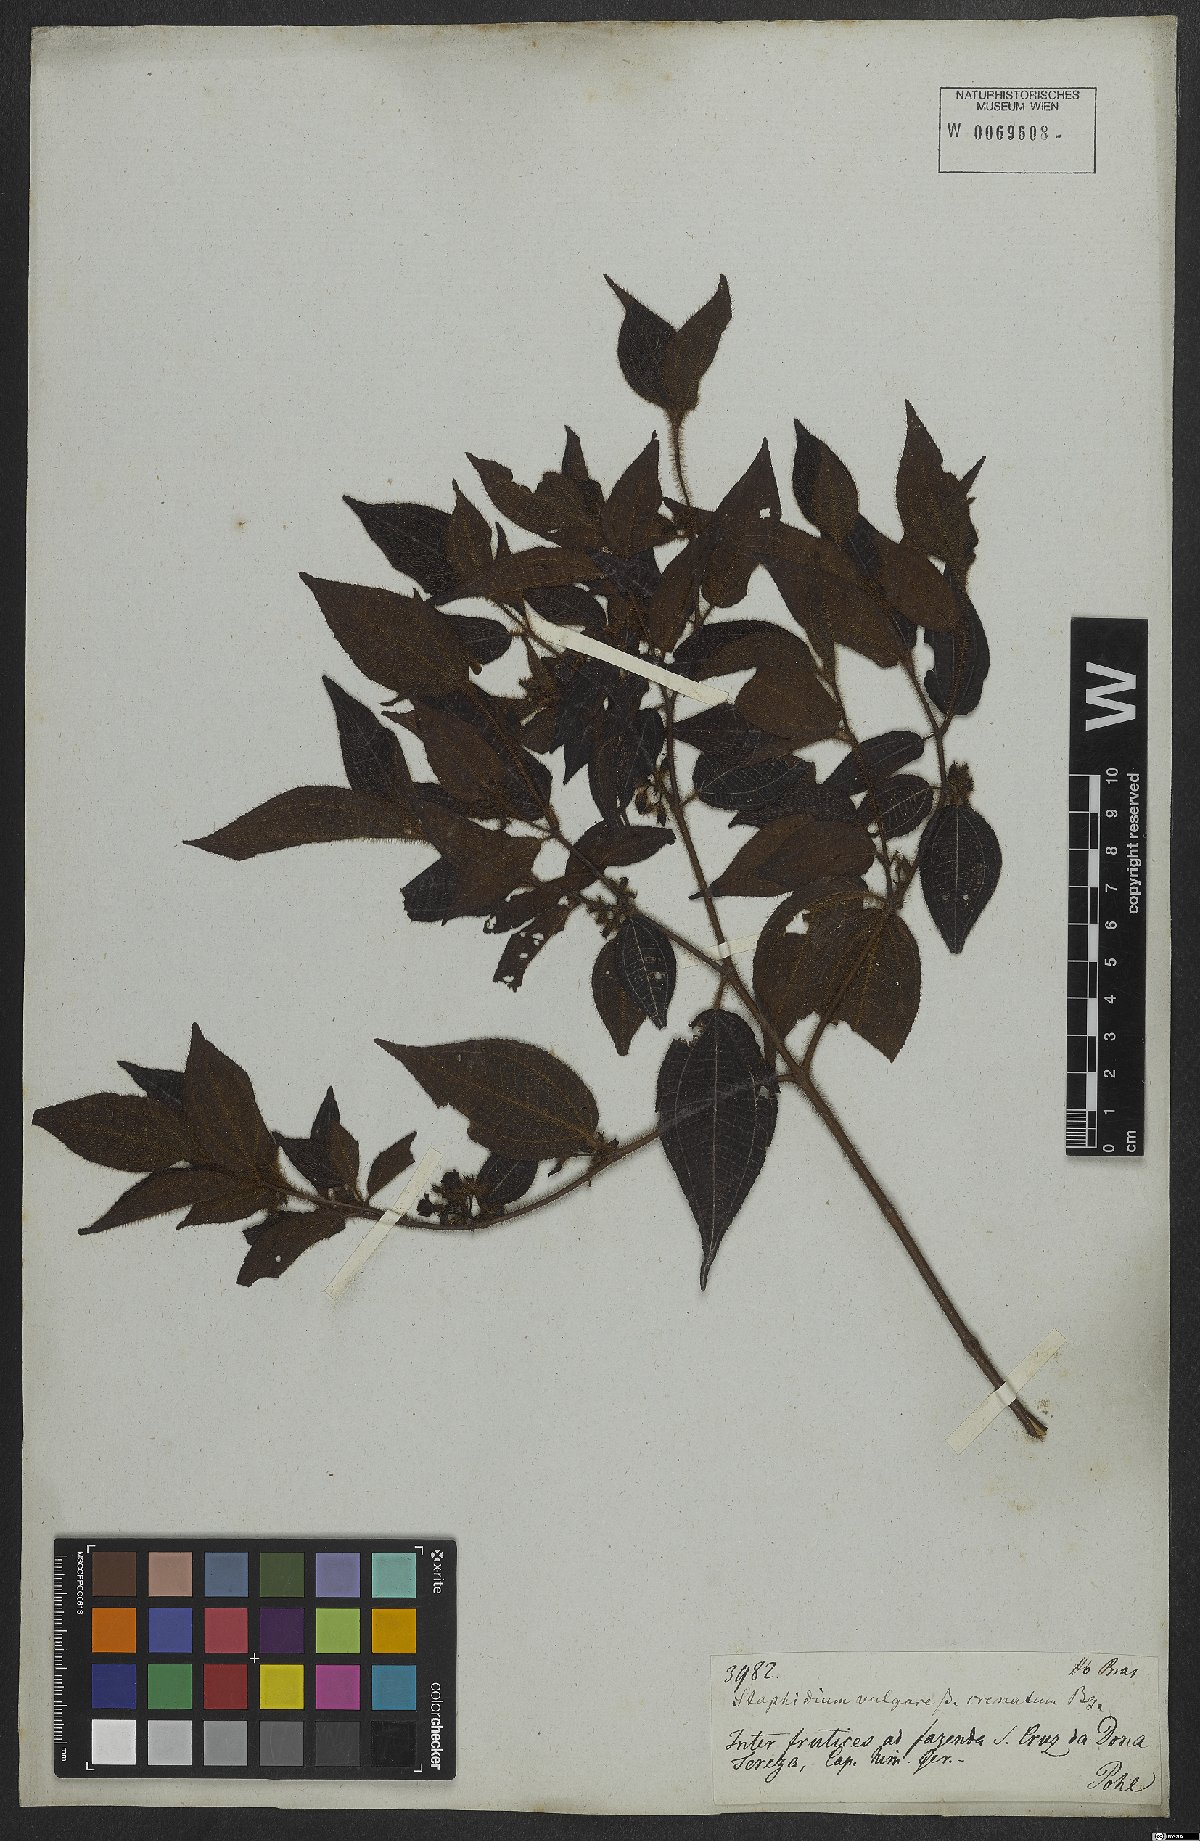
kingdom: Plantae
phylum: Tracheophyta
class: Magnoliopsida
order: Myrtales
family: Melastomataceae
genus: Miconia
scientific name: Miconia crenata
